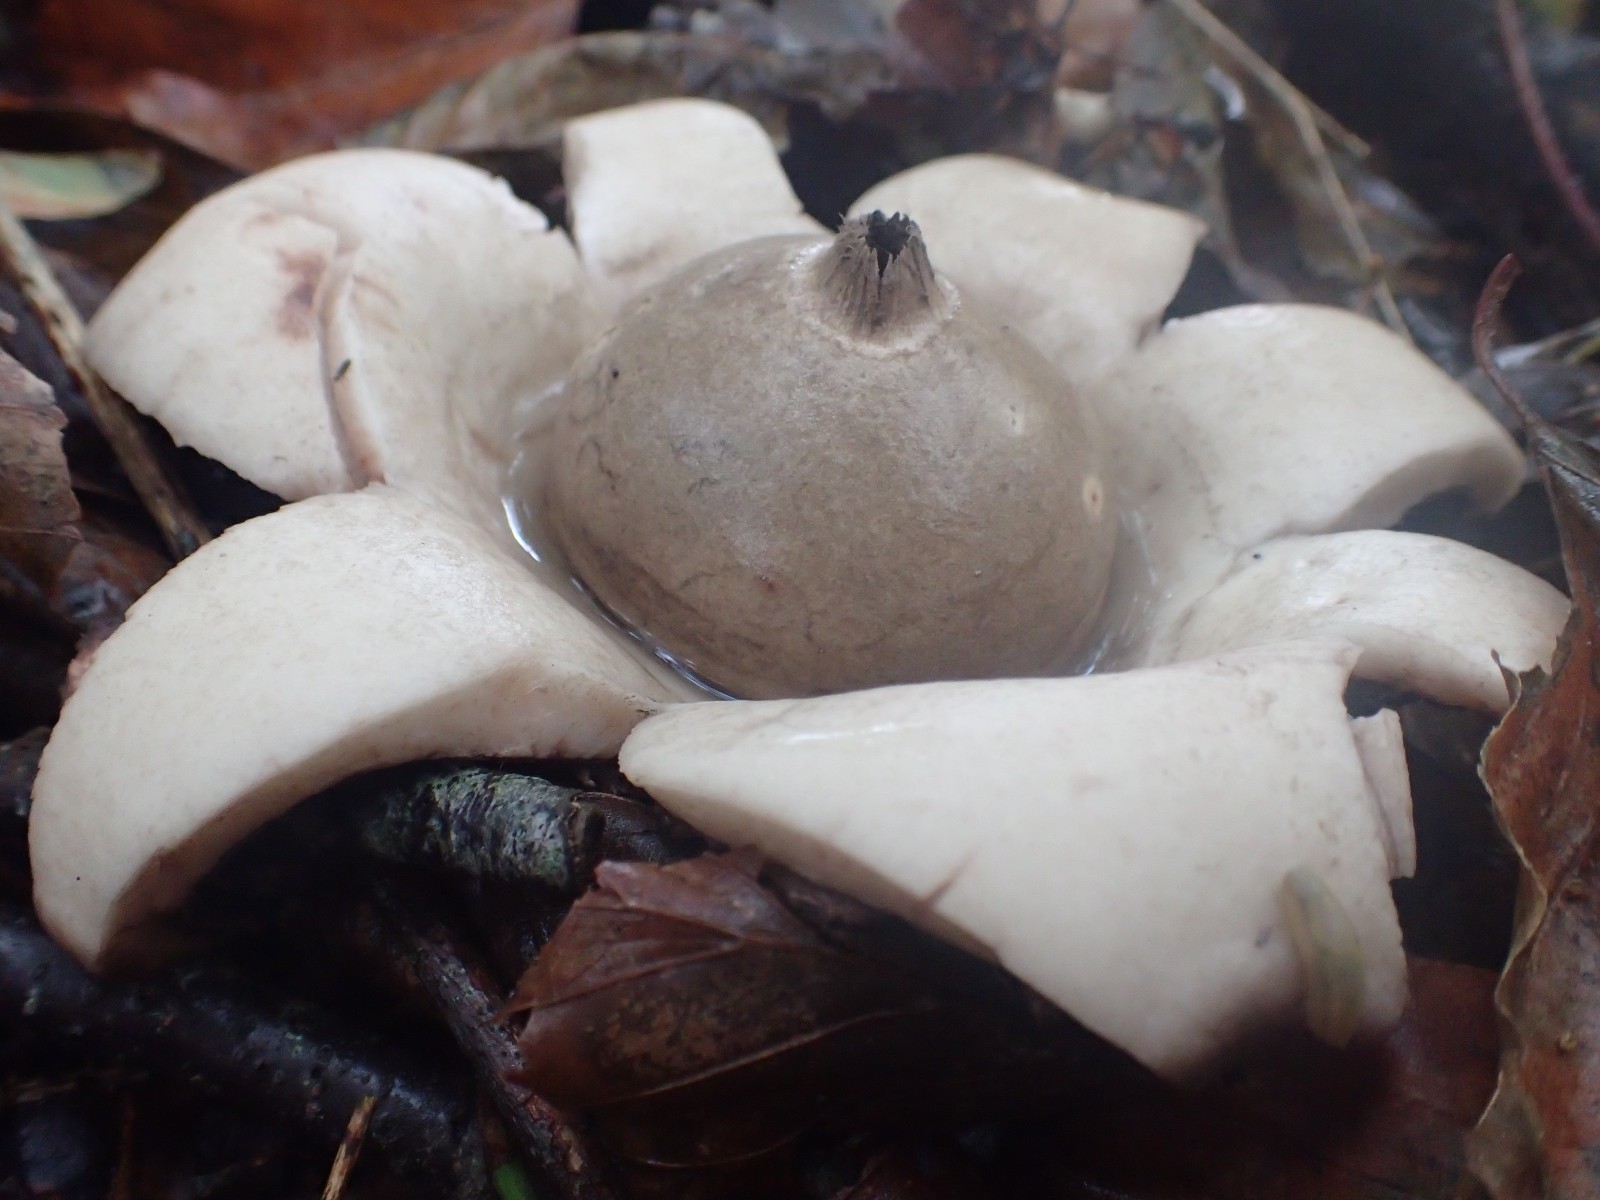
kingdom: Fungi
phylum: Basidiomycota
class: Agaricomycetes
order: Geastrales
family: Geastraceae
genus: Geastrum
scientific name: Geastrum michelianum
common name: kødet stjernebold
